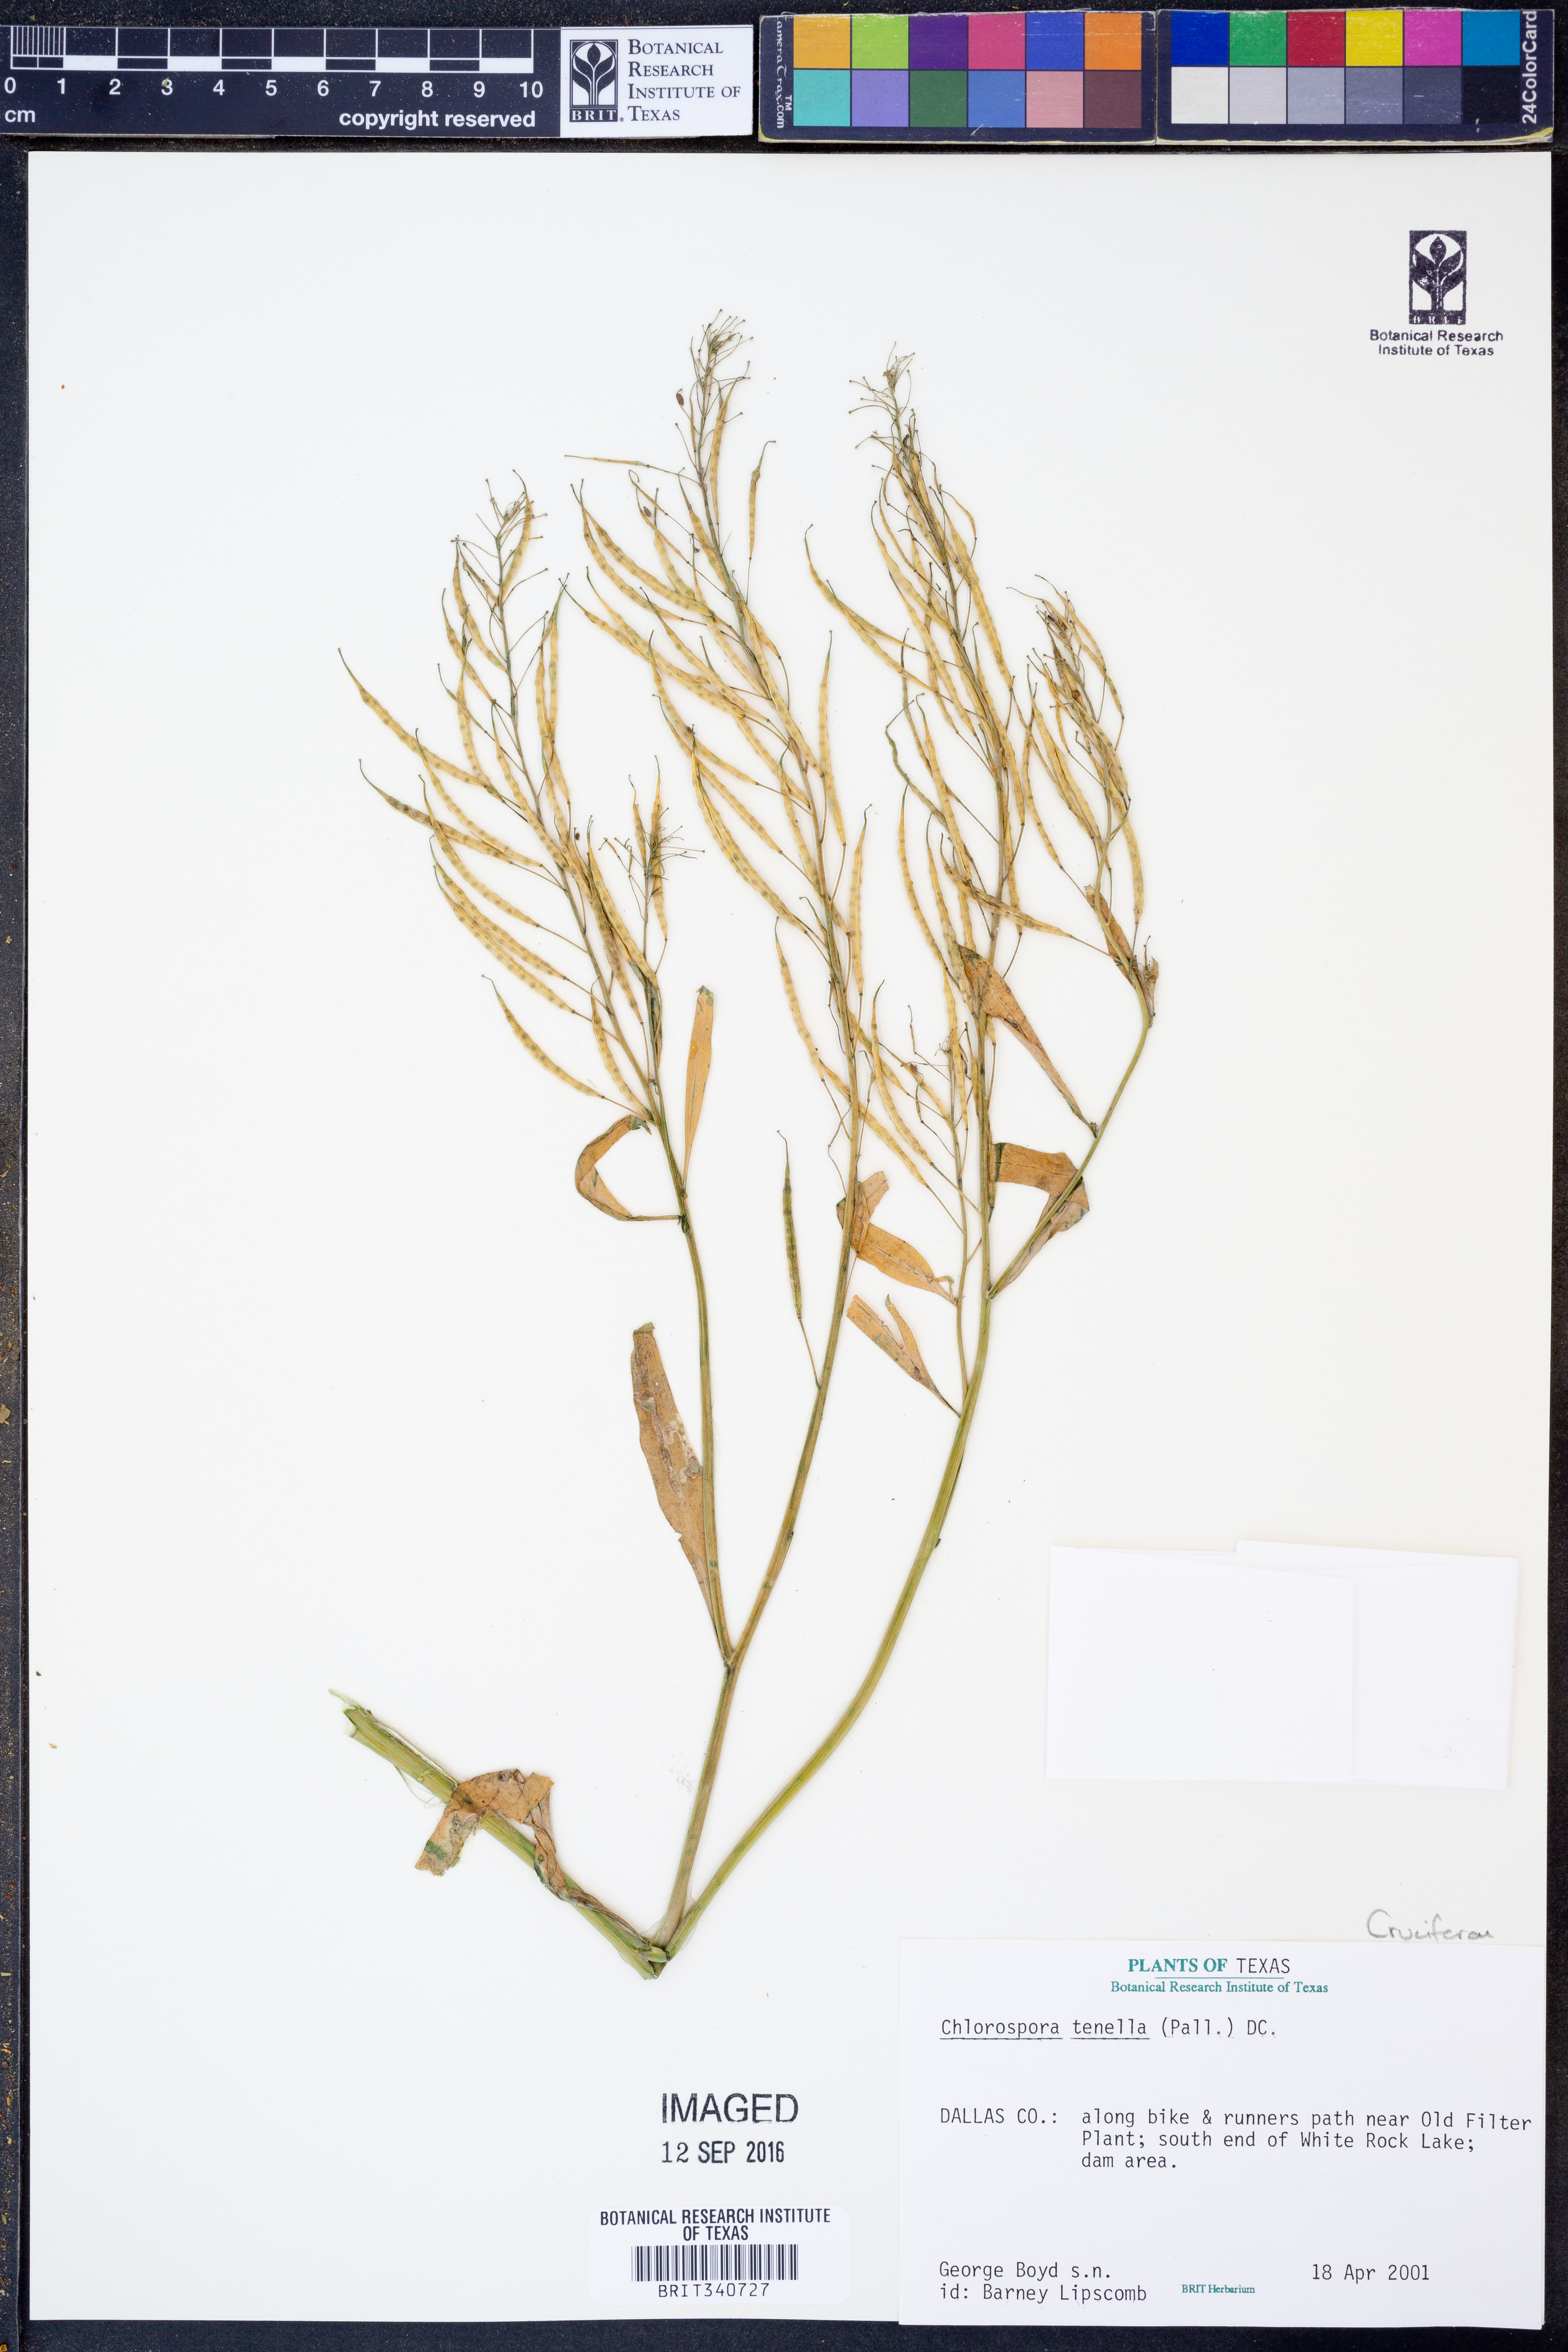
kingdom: Plantae
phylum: Tracheophyta
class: Magnoliopsida
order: Brassicales
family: Brassicaceae
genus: Chorispora
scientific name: Chorispora tenella
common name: Crossflower
